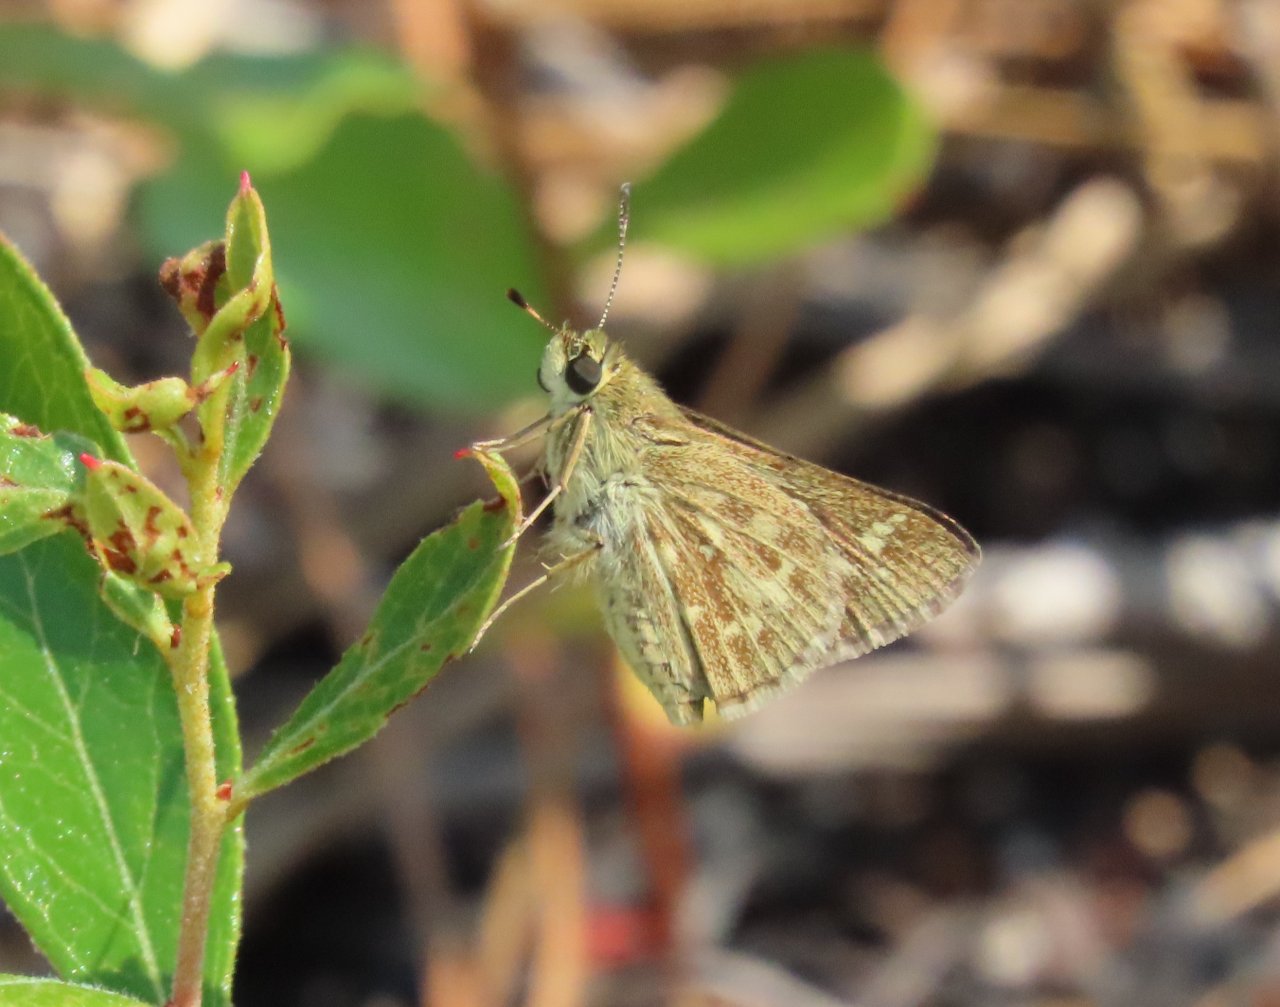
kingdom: Animalia
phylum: Arthropoda
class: Insecta
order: Lepidoptera
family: Hesperiidae
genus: Mastor
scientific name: Mastor carolina
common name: Reversed Roadside-skipper
